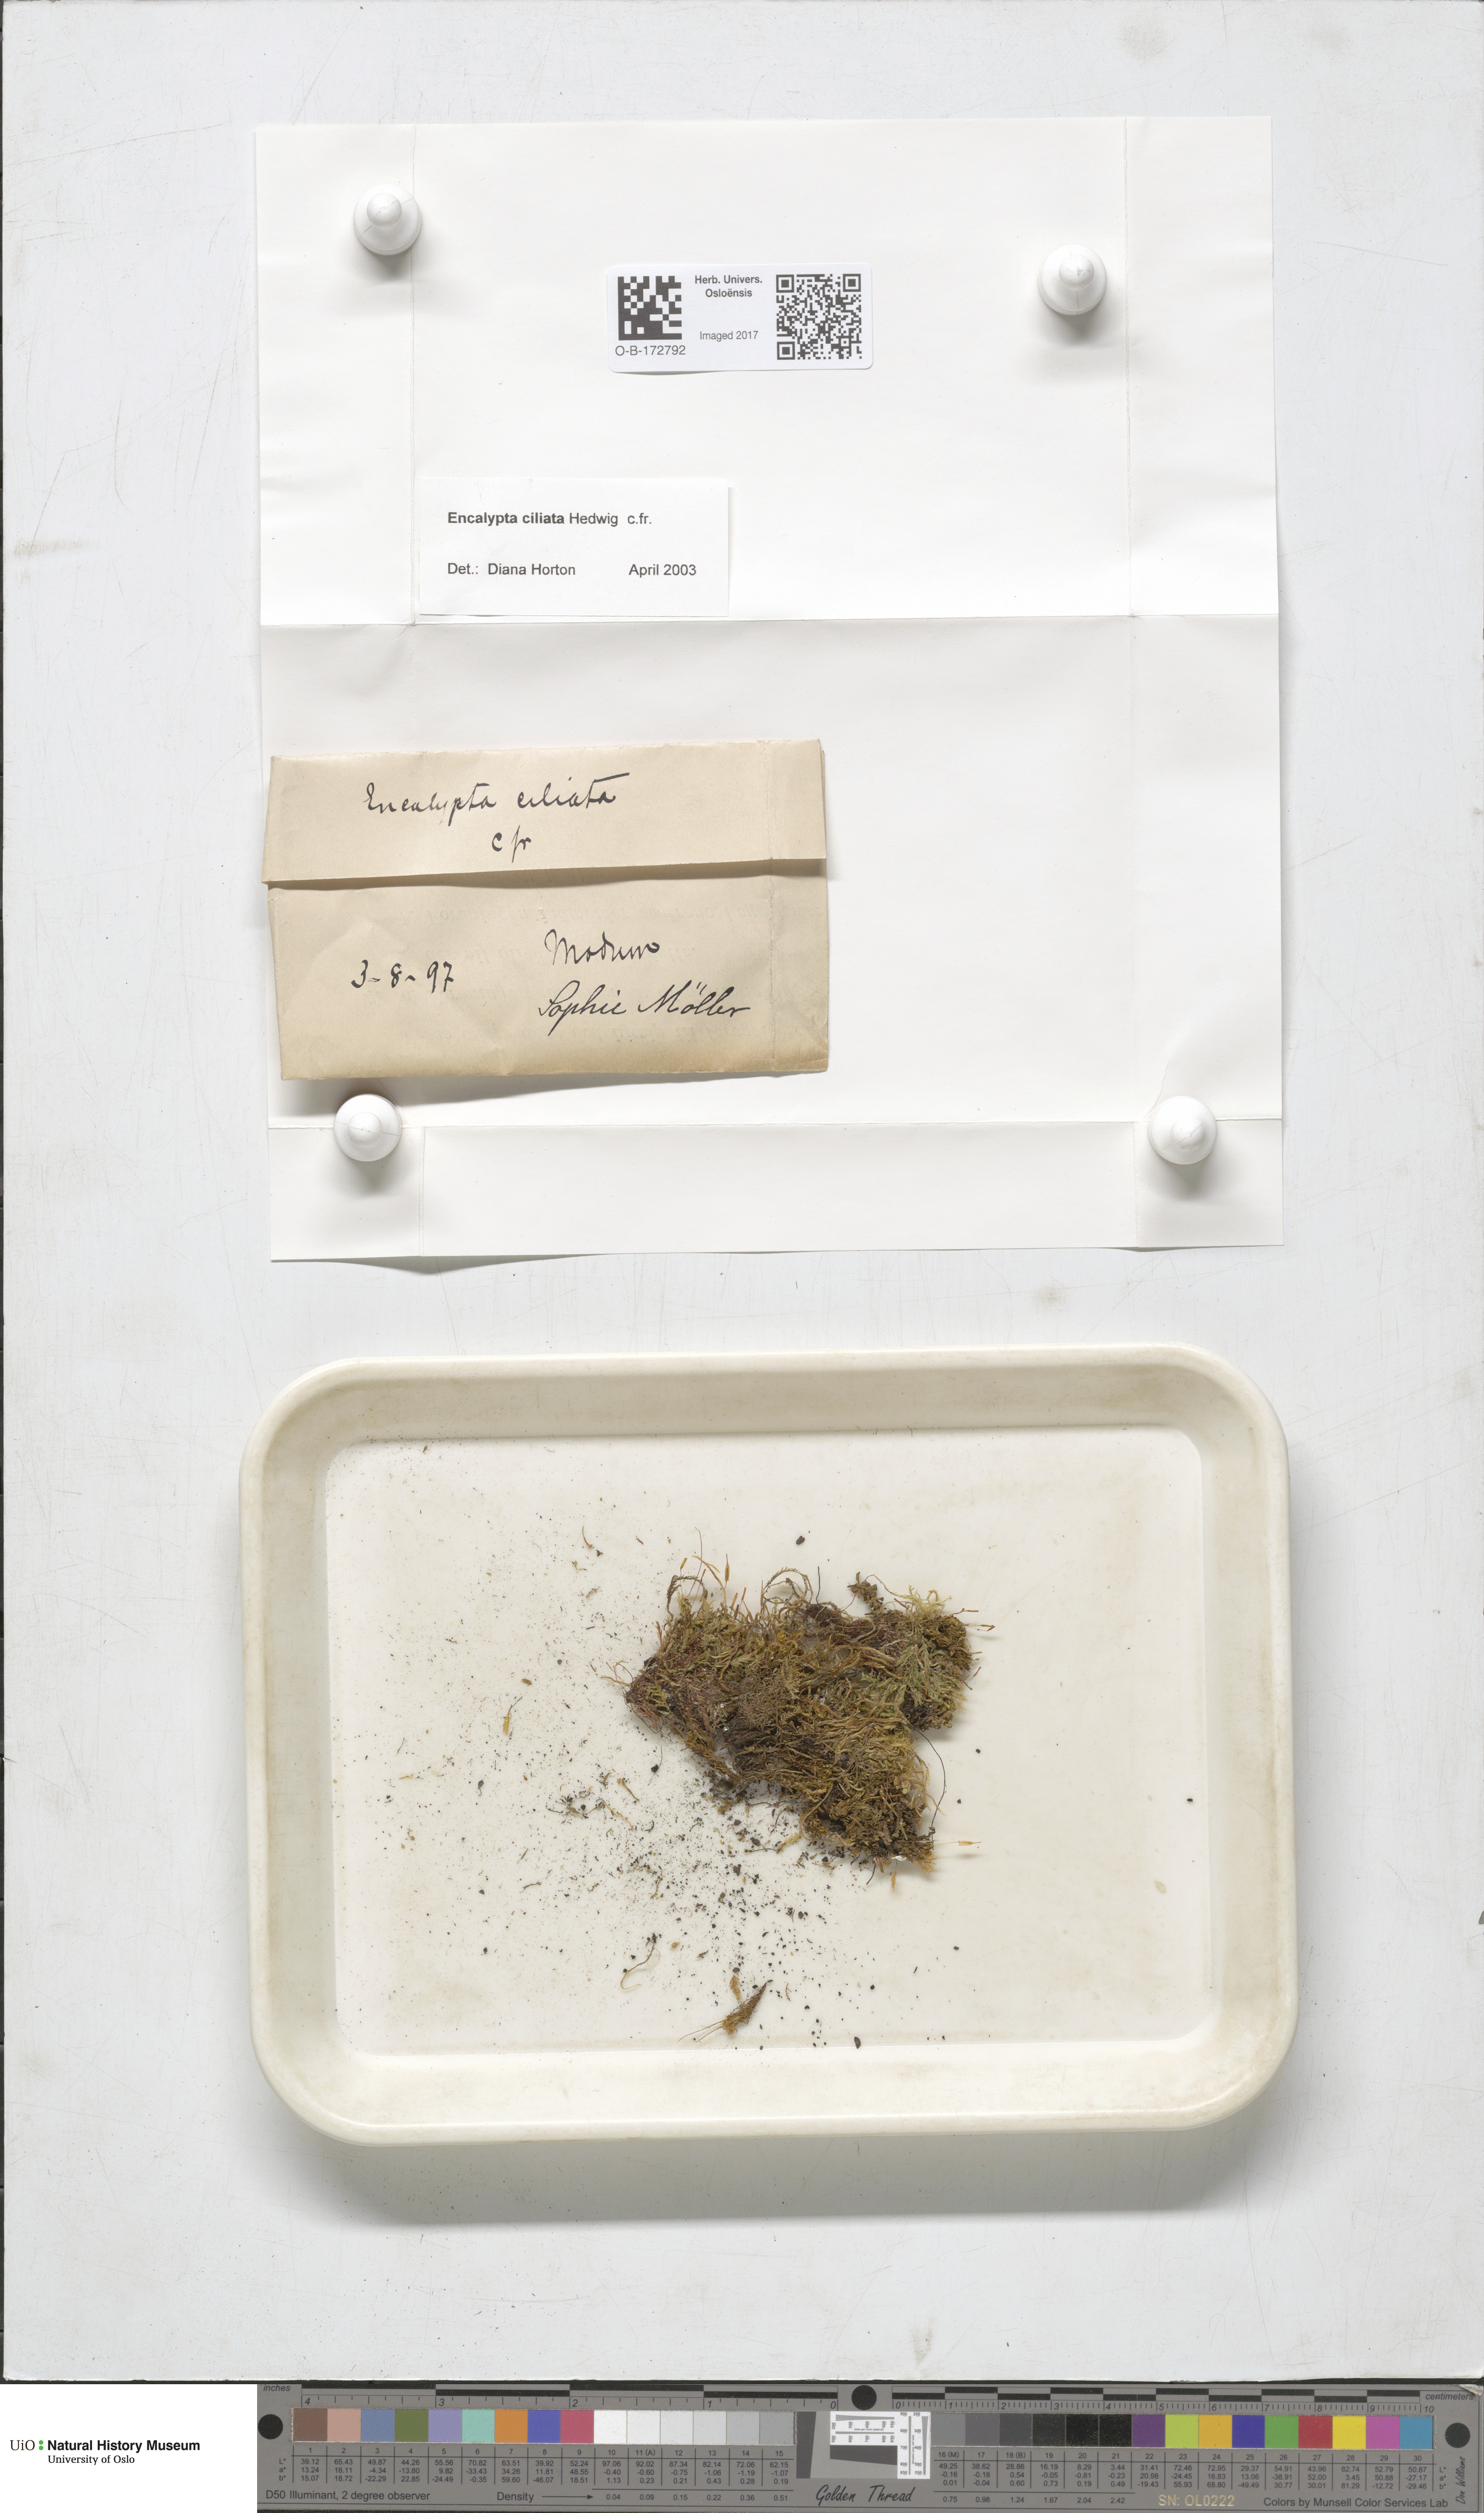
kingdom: Plantae
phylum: Bryophyta
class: Bryopsida
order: Encalyptales
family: Encalyptaceae
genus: Encalypta
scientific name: Encalypta ciliata
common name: Fringed extinguisher-moss
